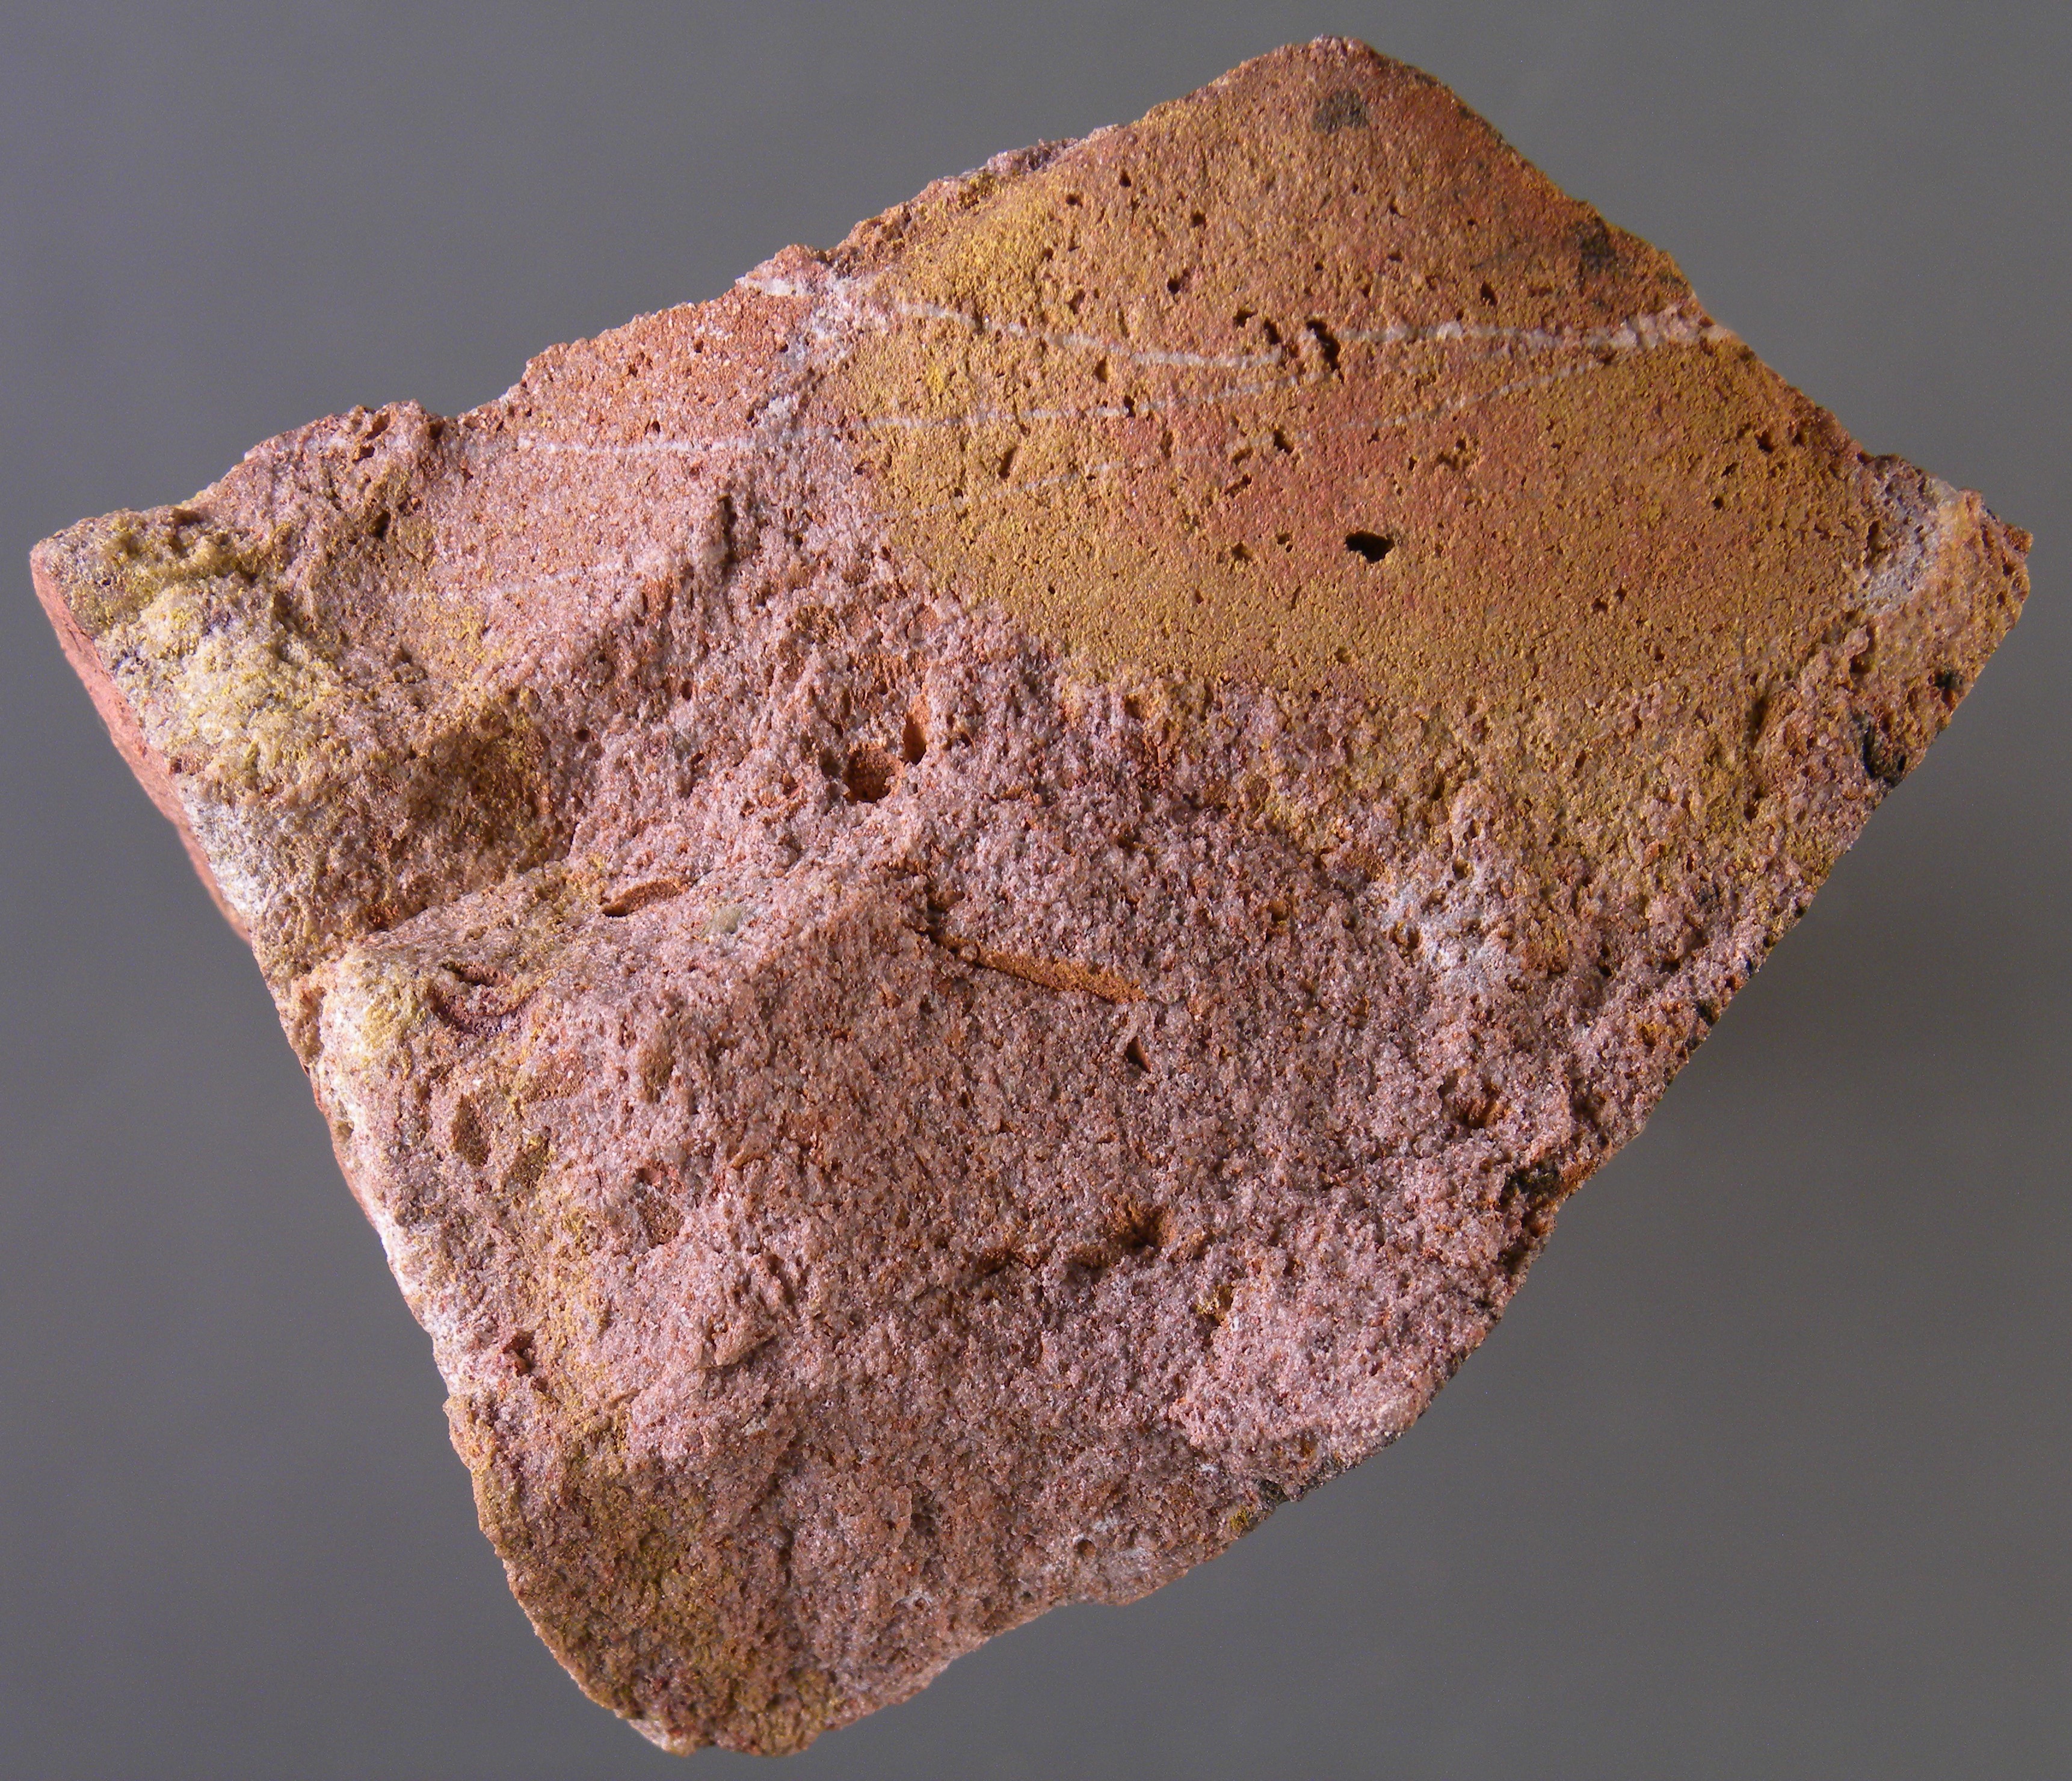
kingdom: Animalia
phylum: Mollusca
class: Bivalvia
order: Nuculanida
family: Malletiidae
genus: Palaeoneilo
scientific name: Palaeoneilo
